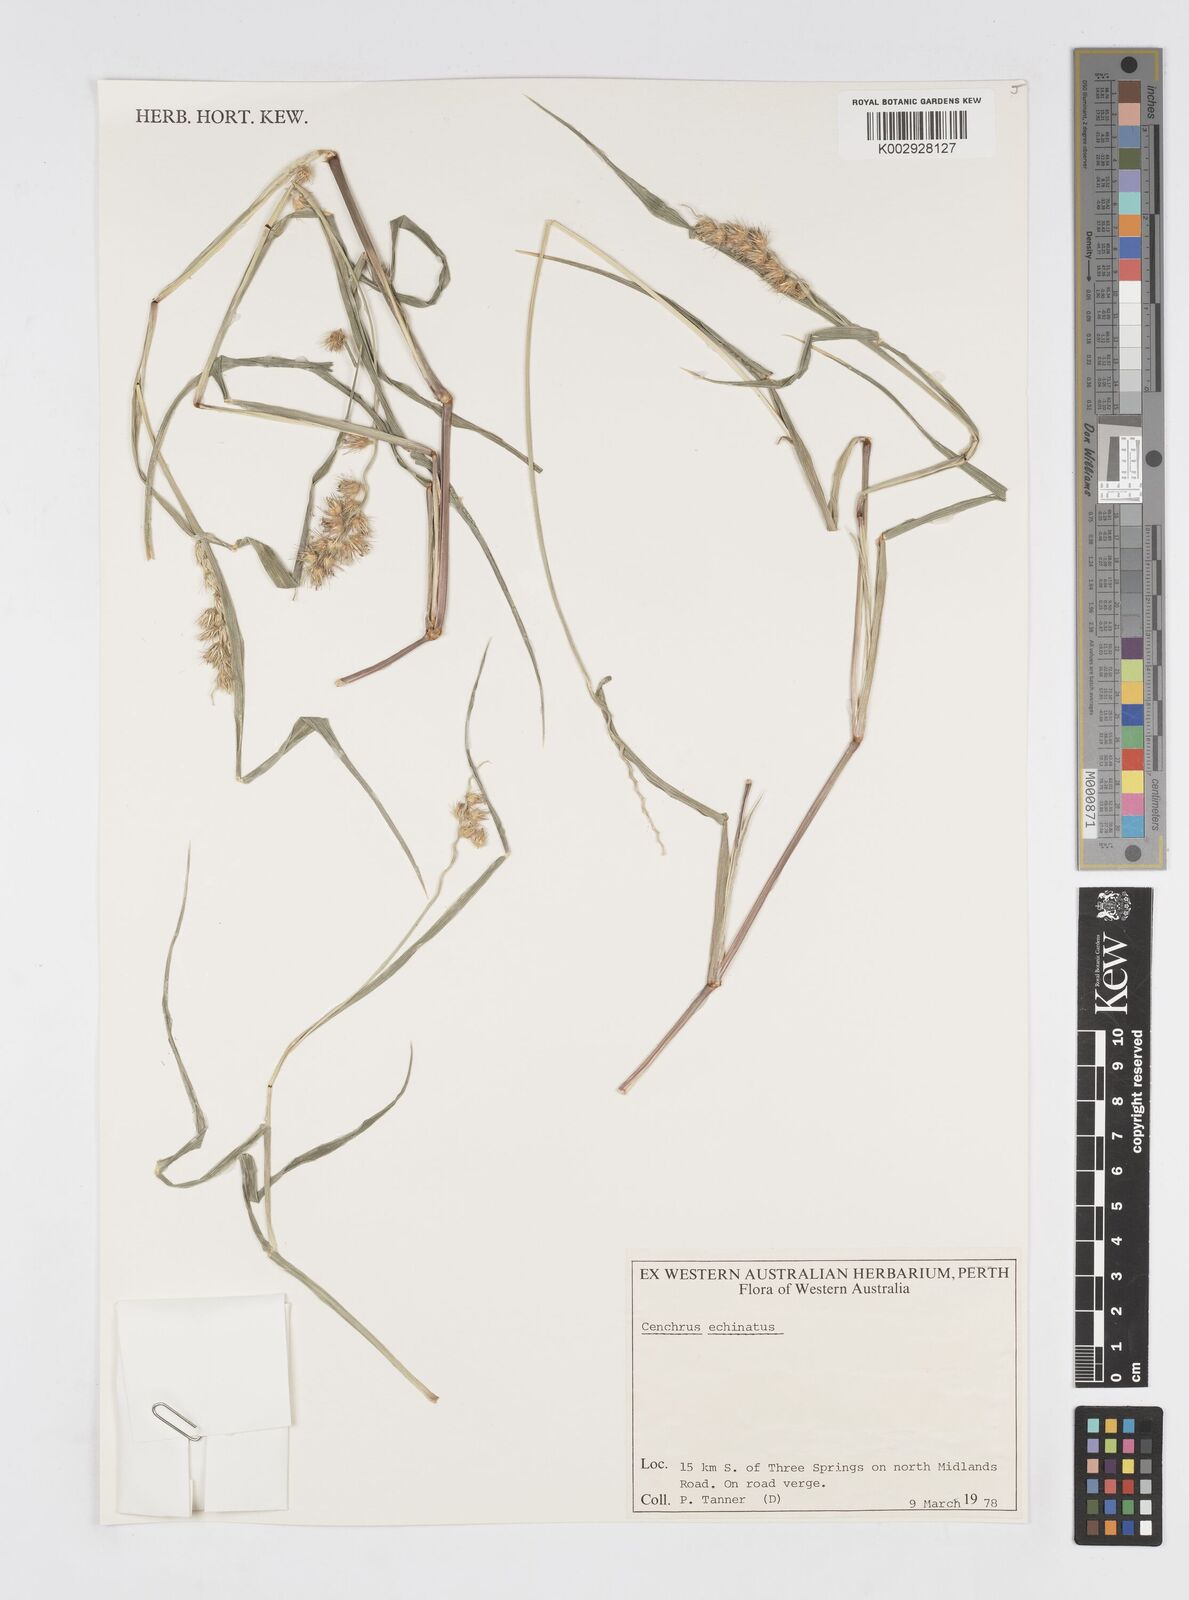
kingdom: Plantae
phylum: Tracheophyta
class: Liliopsida
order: Poales
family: Poaceae
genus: Cenchrus
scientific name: Cenchrus echinatus
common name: Southern sandbur
